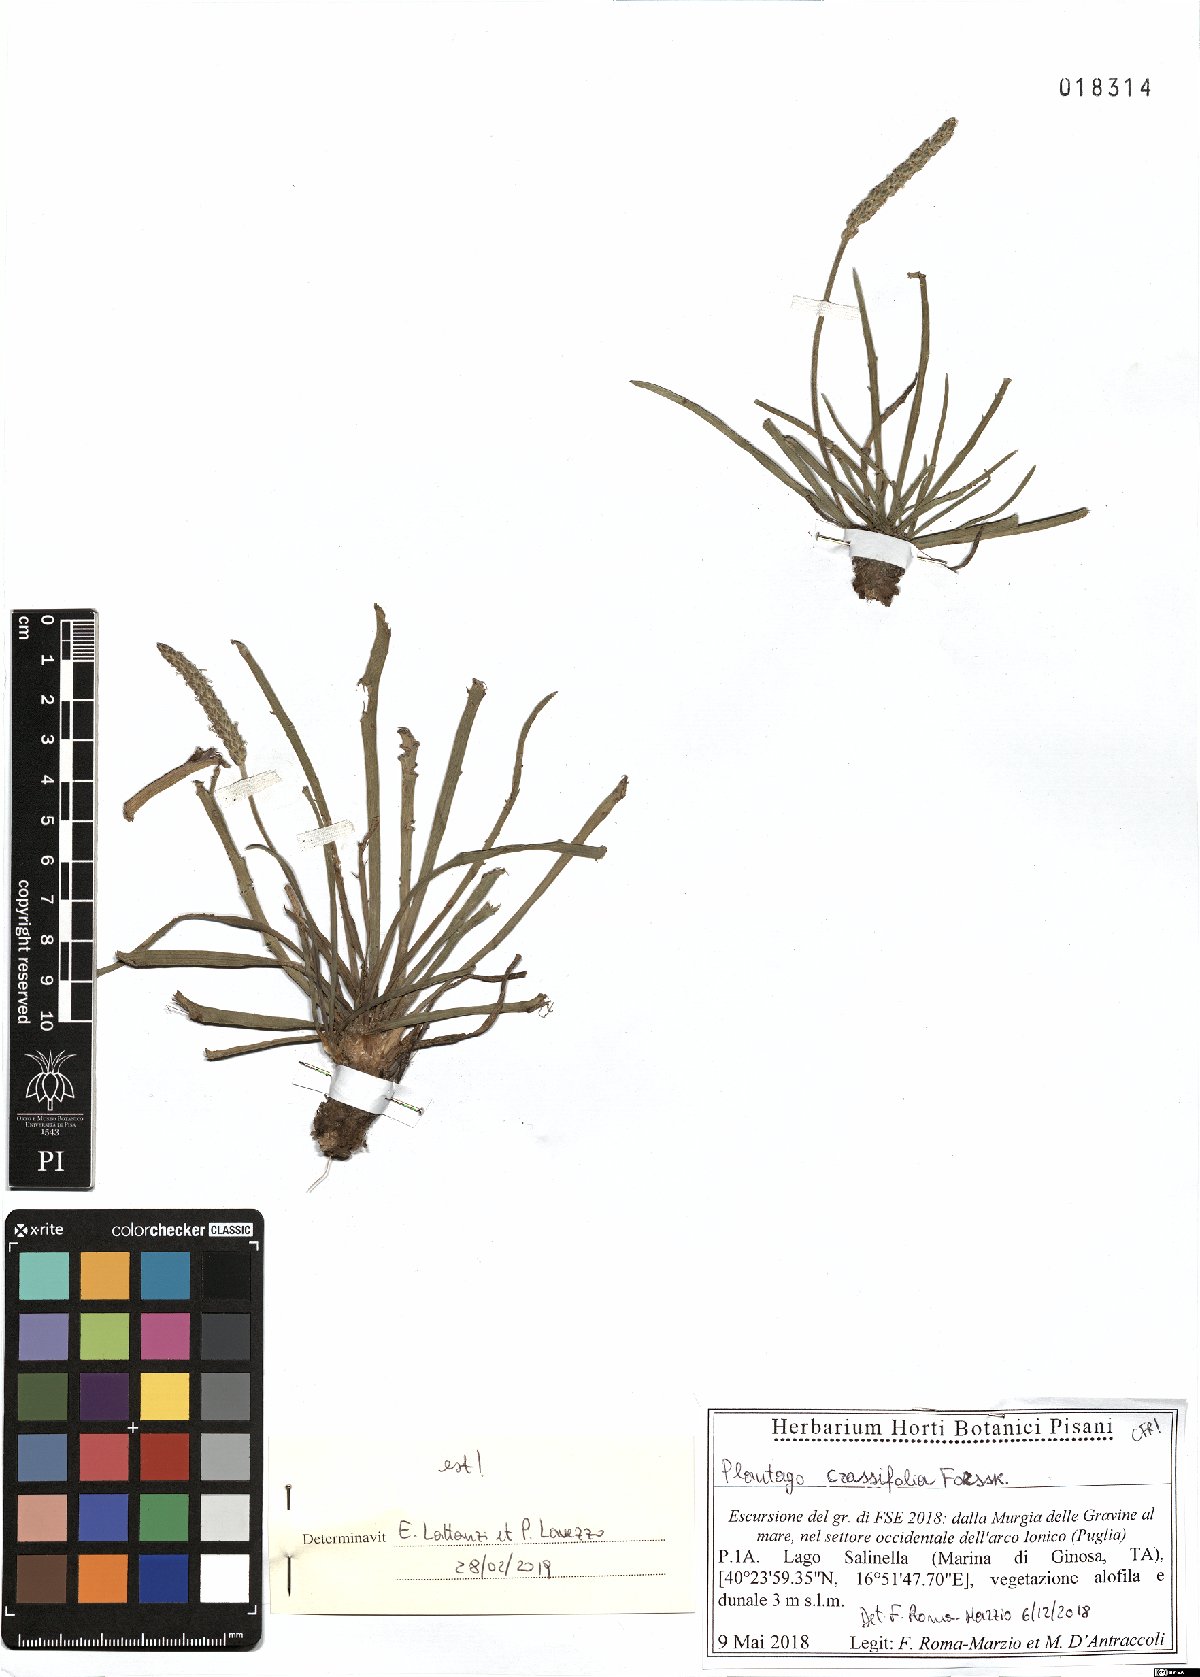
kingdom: Plantae
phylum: Tracheophyta
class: Magnoliopsida
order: Lamiales
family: Plantaginaceae
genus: Plantago
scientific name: Plantago crassifolia
